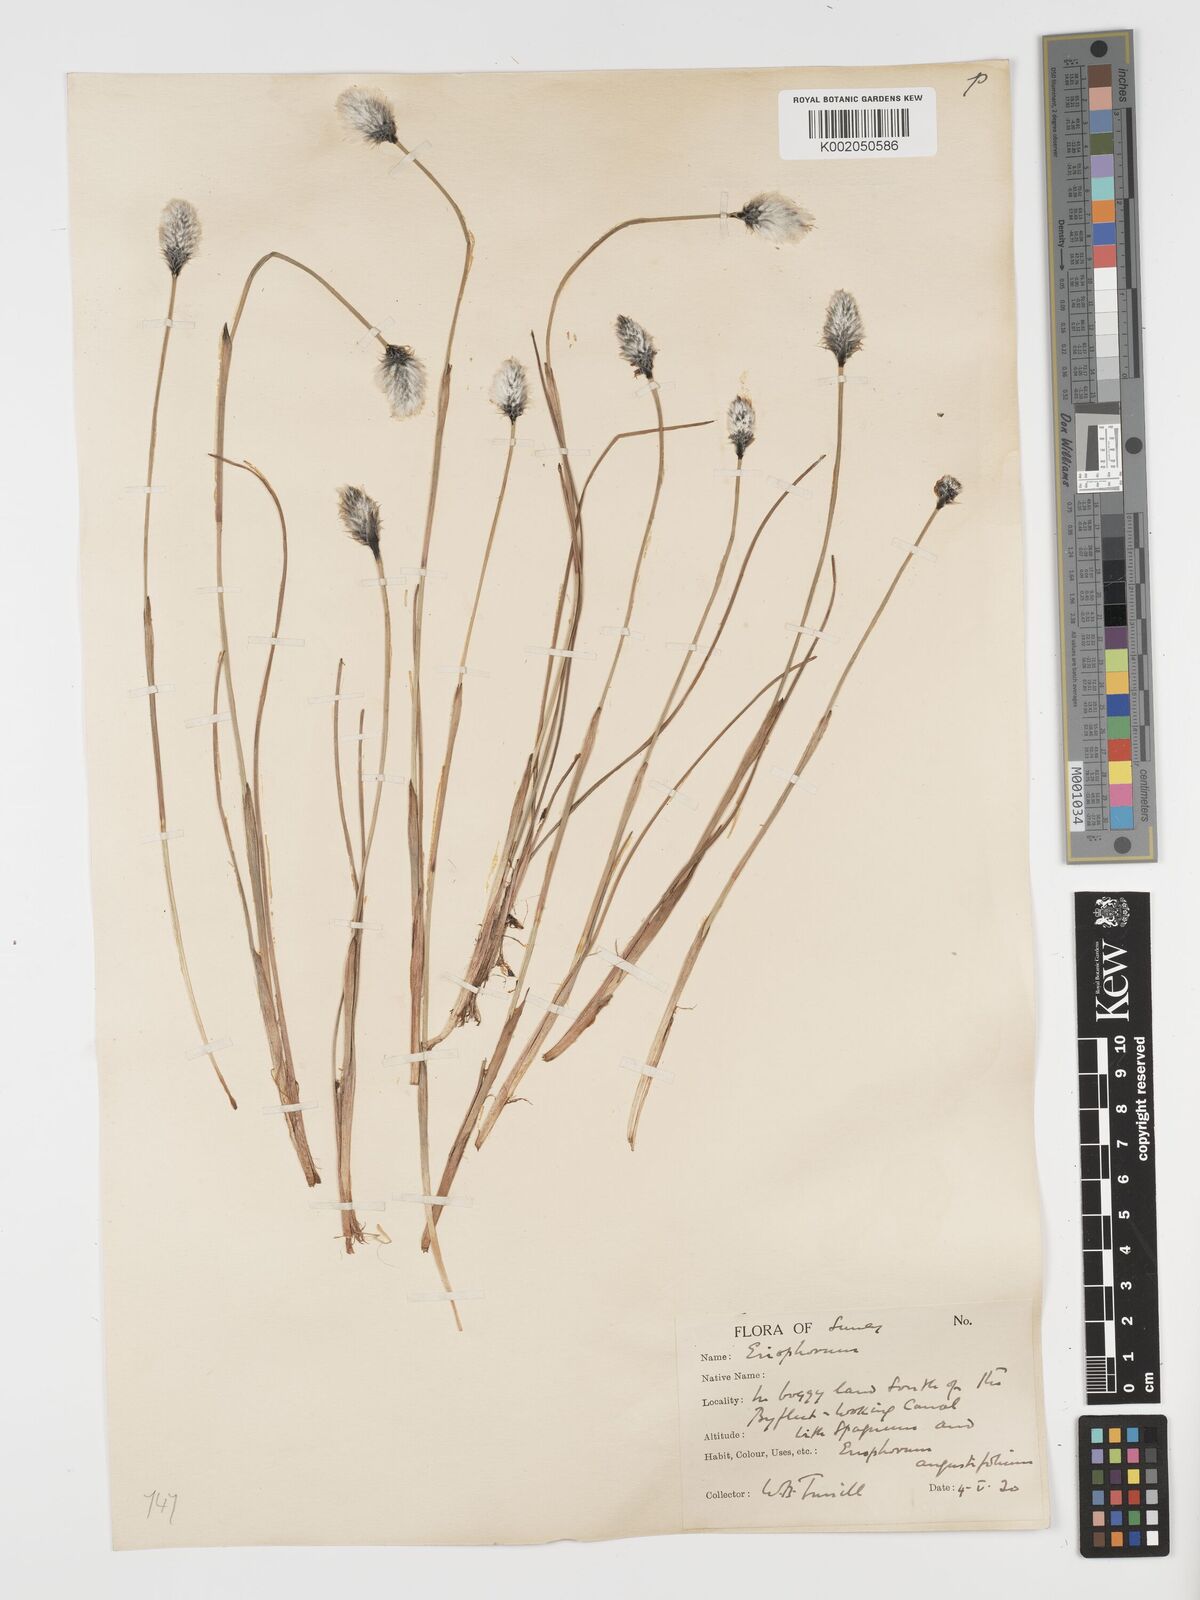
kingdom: Plantae
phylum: Tracheophyta
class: Liliopsida
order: Poales
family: Cyperaceae
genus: Eriophorum
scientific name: Eriophorum vaginatum
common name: Hare's-tail cottongrass
